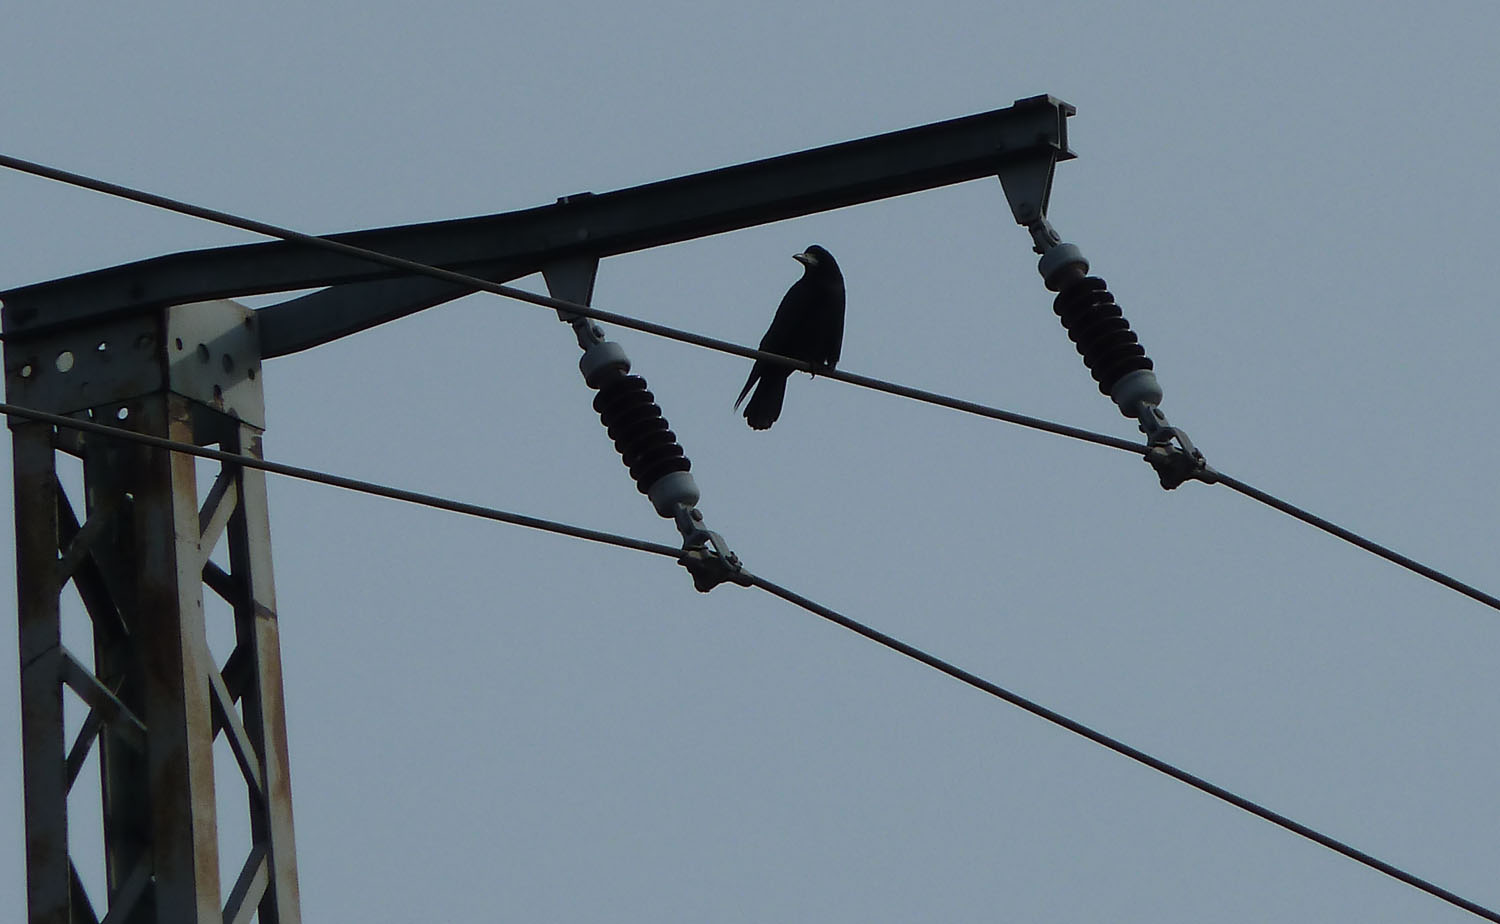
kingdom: Animalia
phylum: Chordata
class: Aves
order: Passeriformes
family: Corvidae
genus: Corvus
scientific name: Corvus frugilegus
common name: Rook
